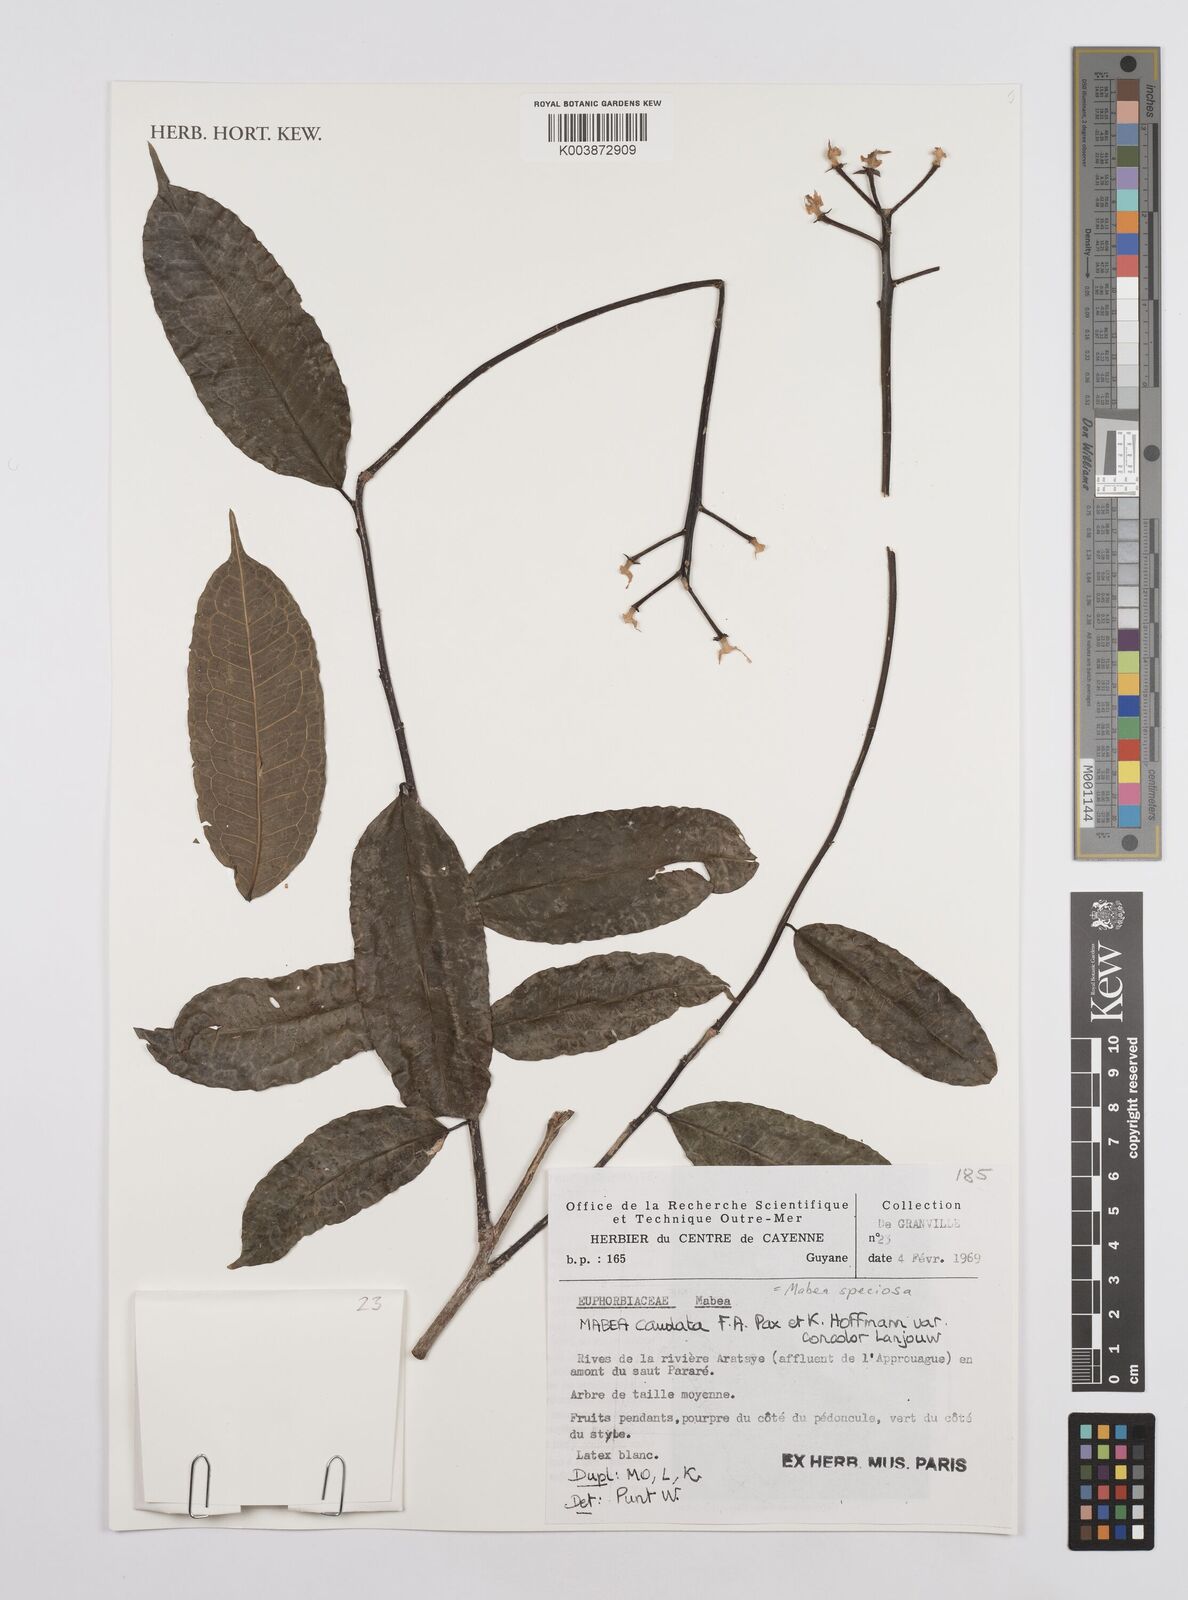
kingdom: Plantae
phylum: Tracheophyta
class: Magnoliopsida
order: Malpighiales
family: Euphorbiaceae
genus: Mabea
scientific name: Mabea speciosa
